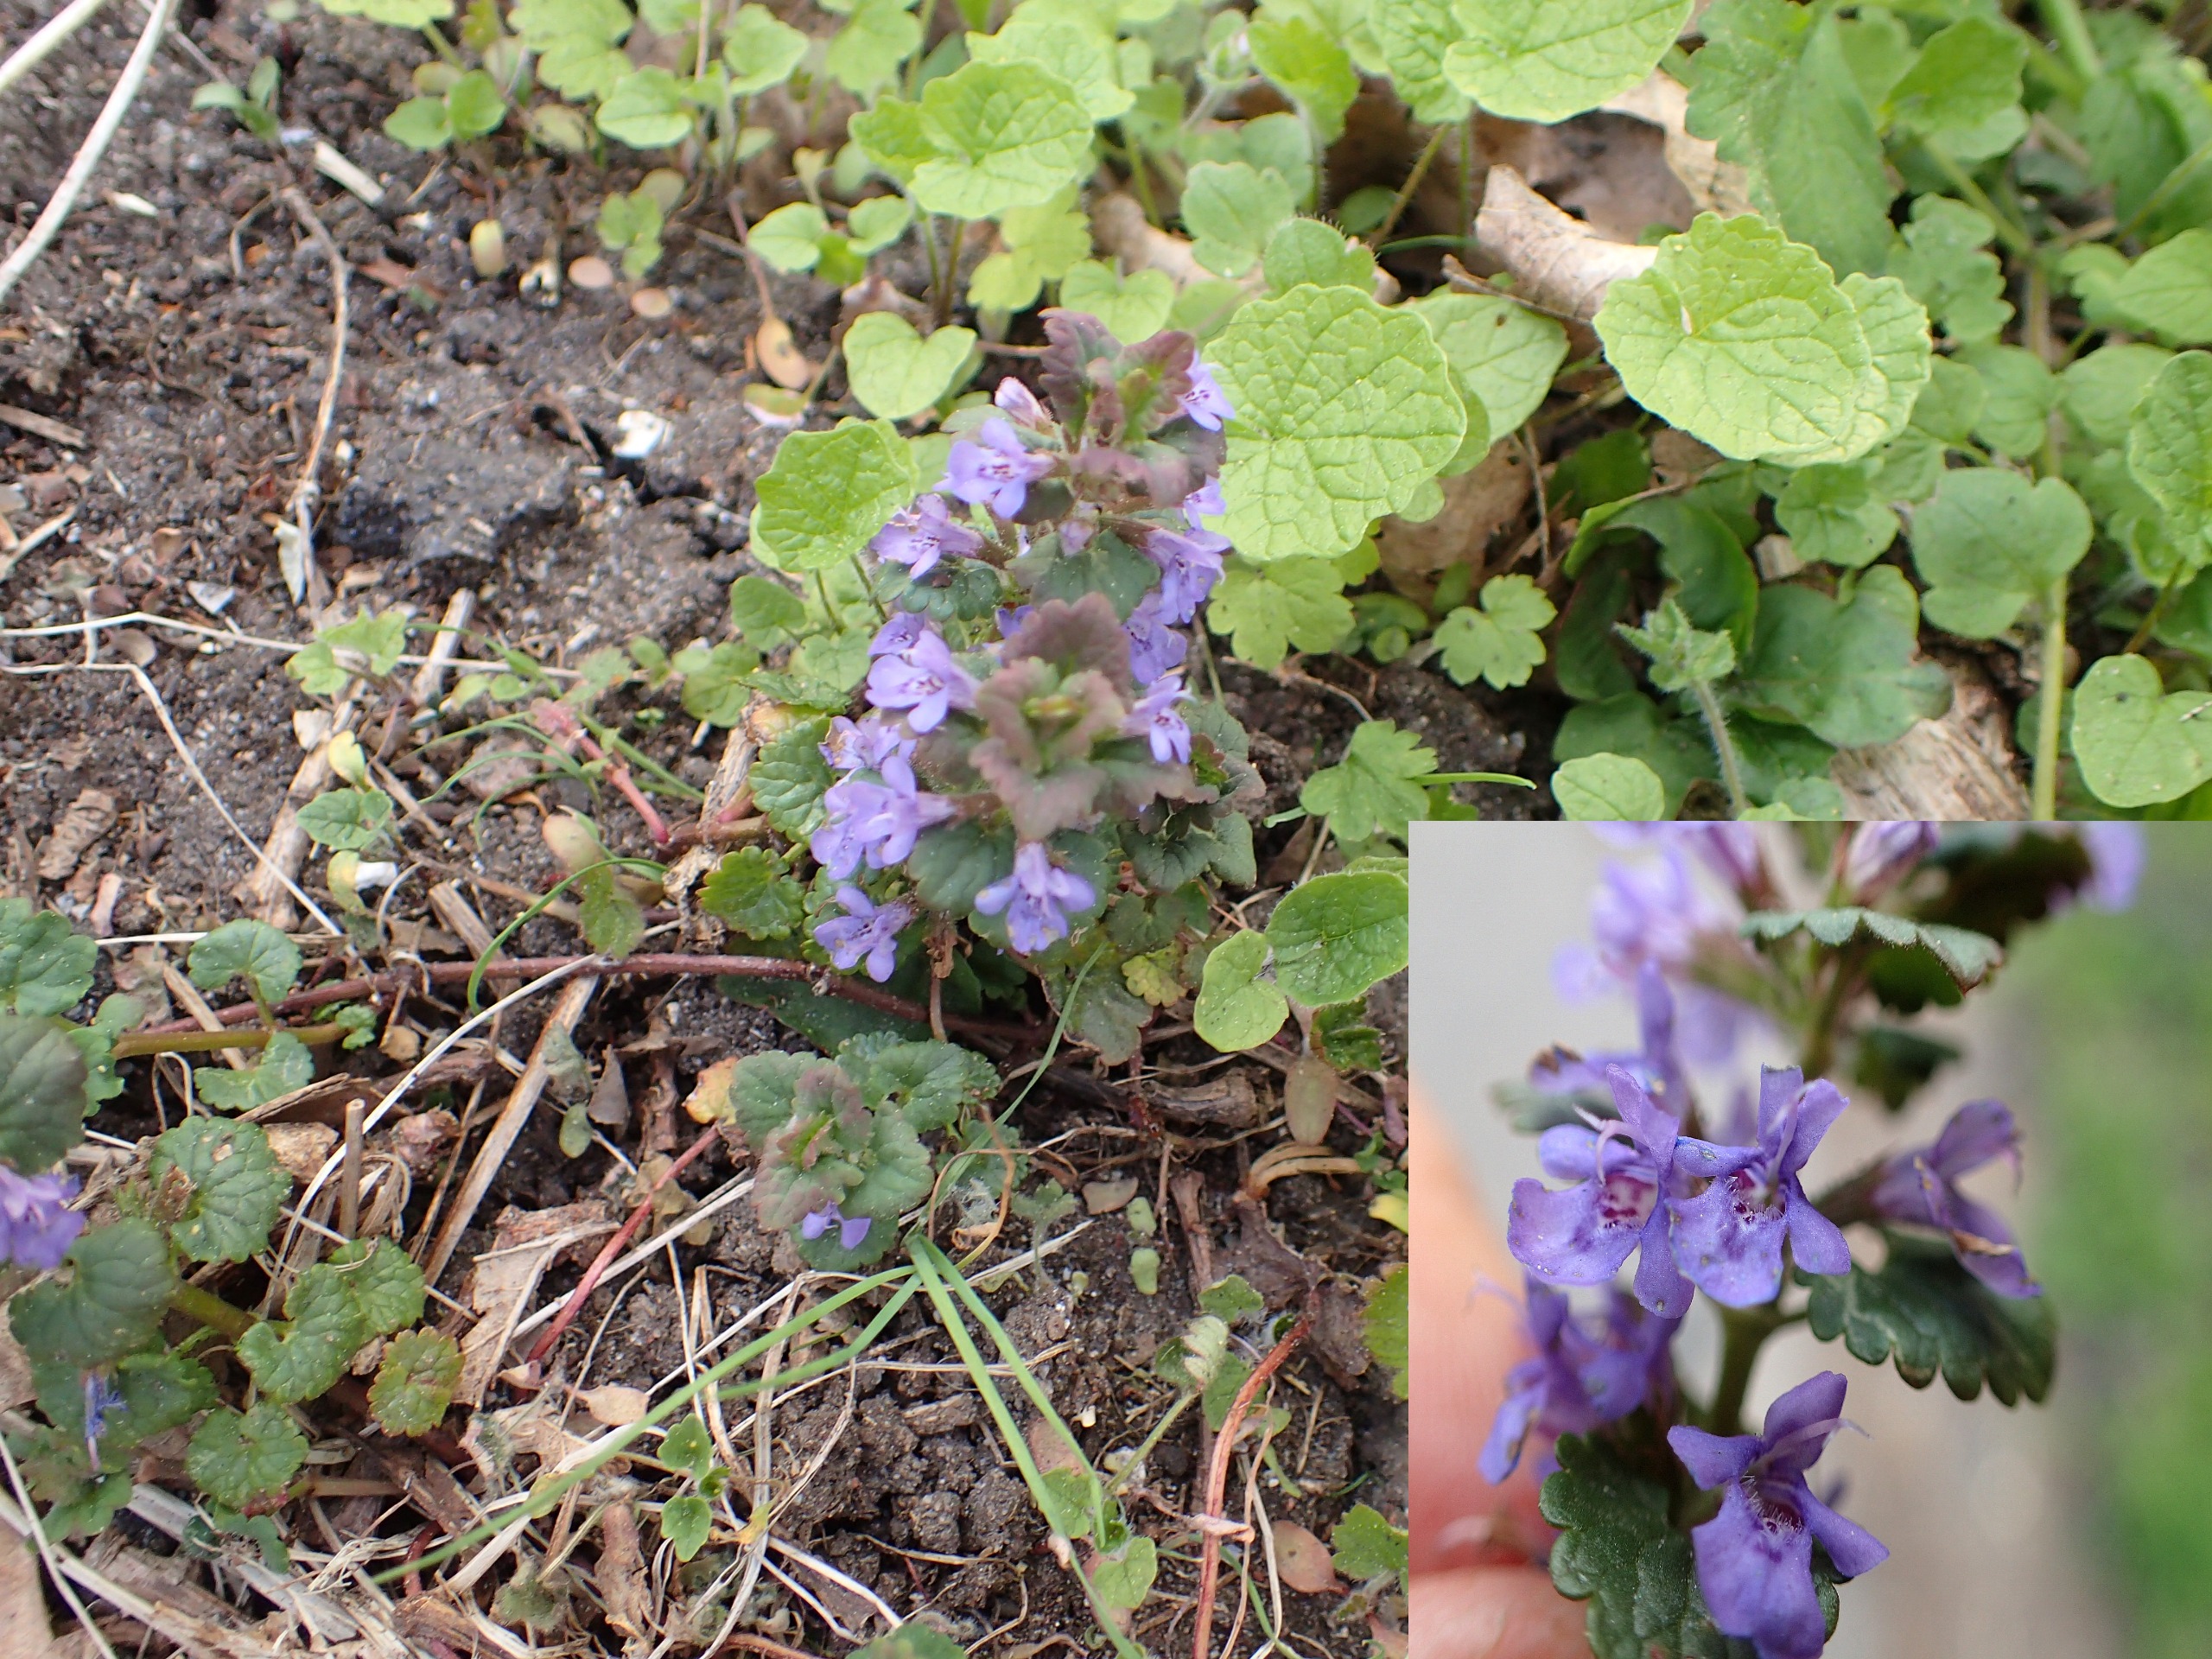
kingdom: Plantae
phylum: Tracheophyta
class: Magnoliopsida
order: Lamiales
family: Lamiaceae
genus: Glechoma
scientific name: Glechoma hederacea
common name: Korsknap
